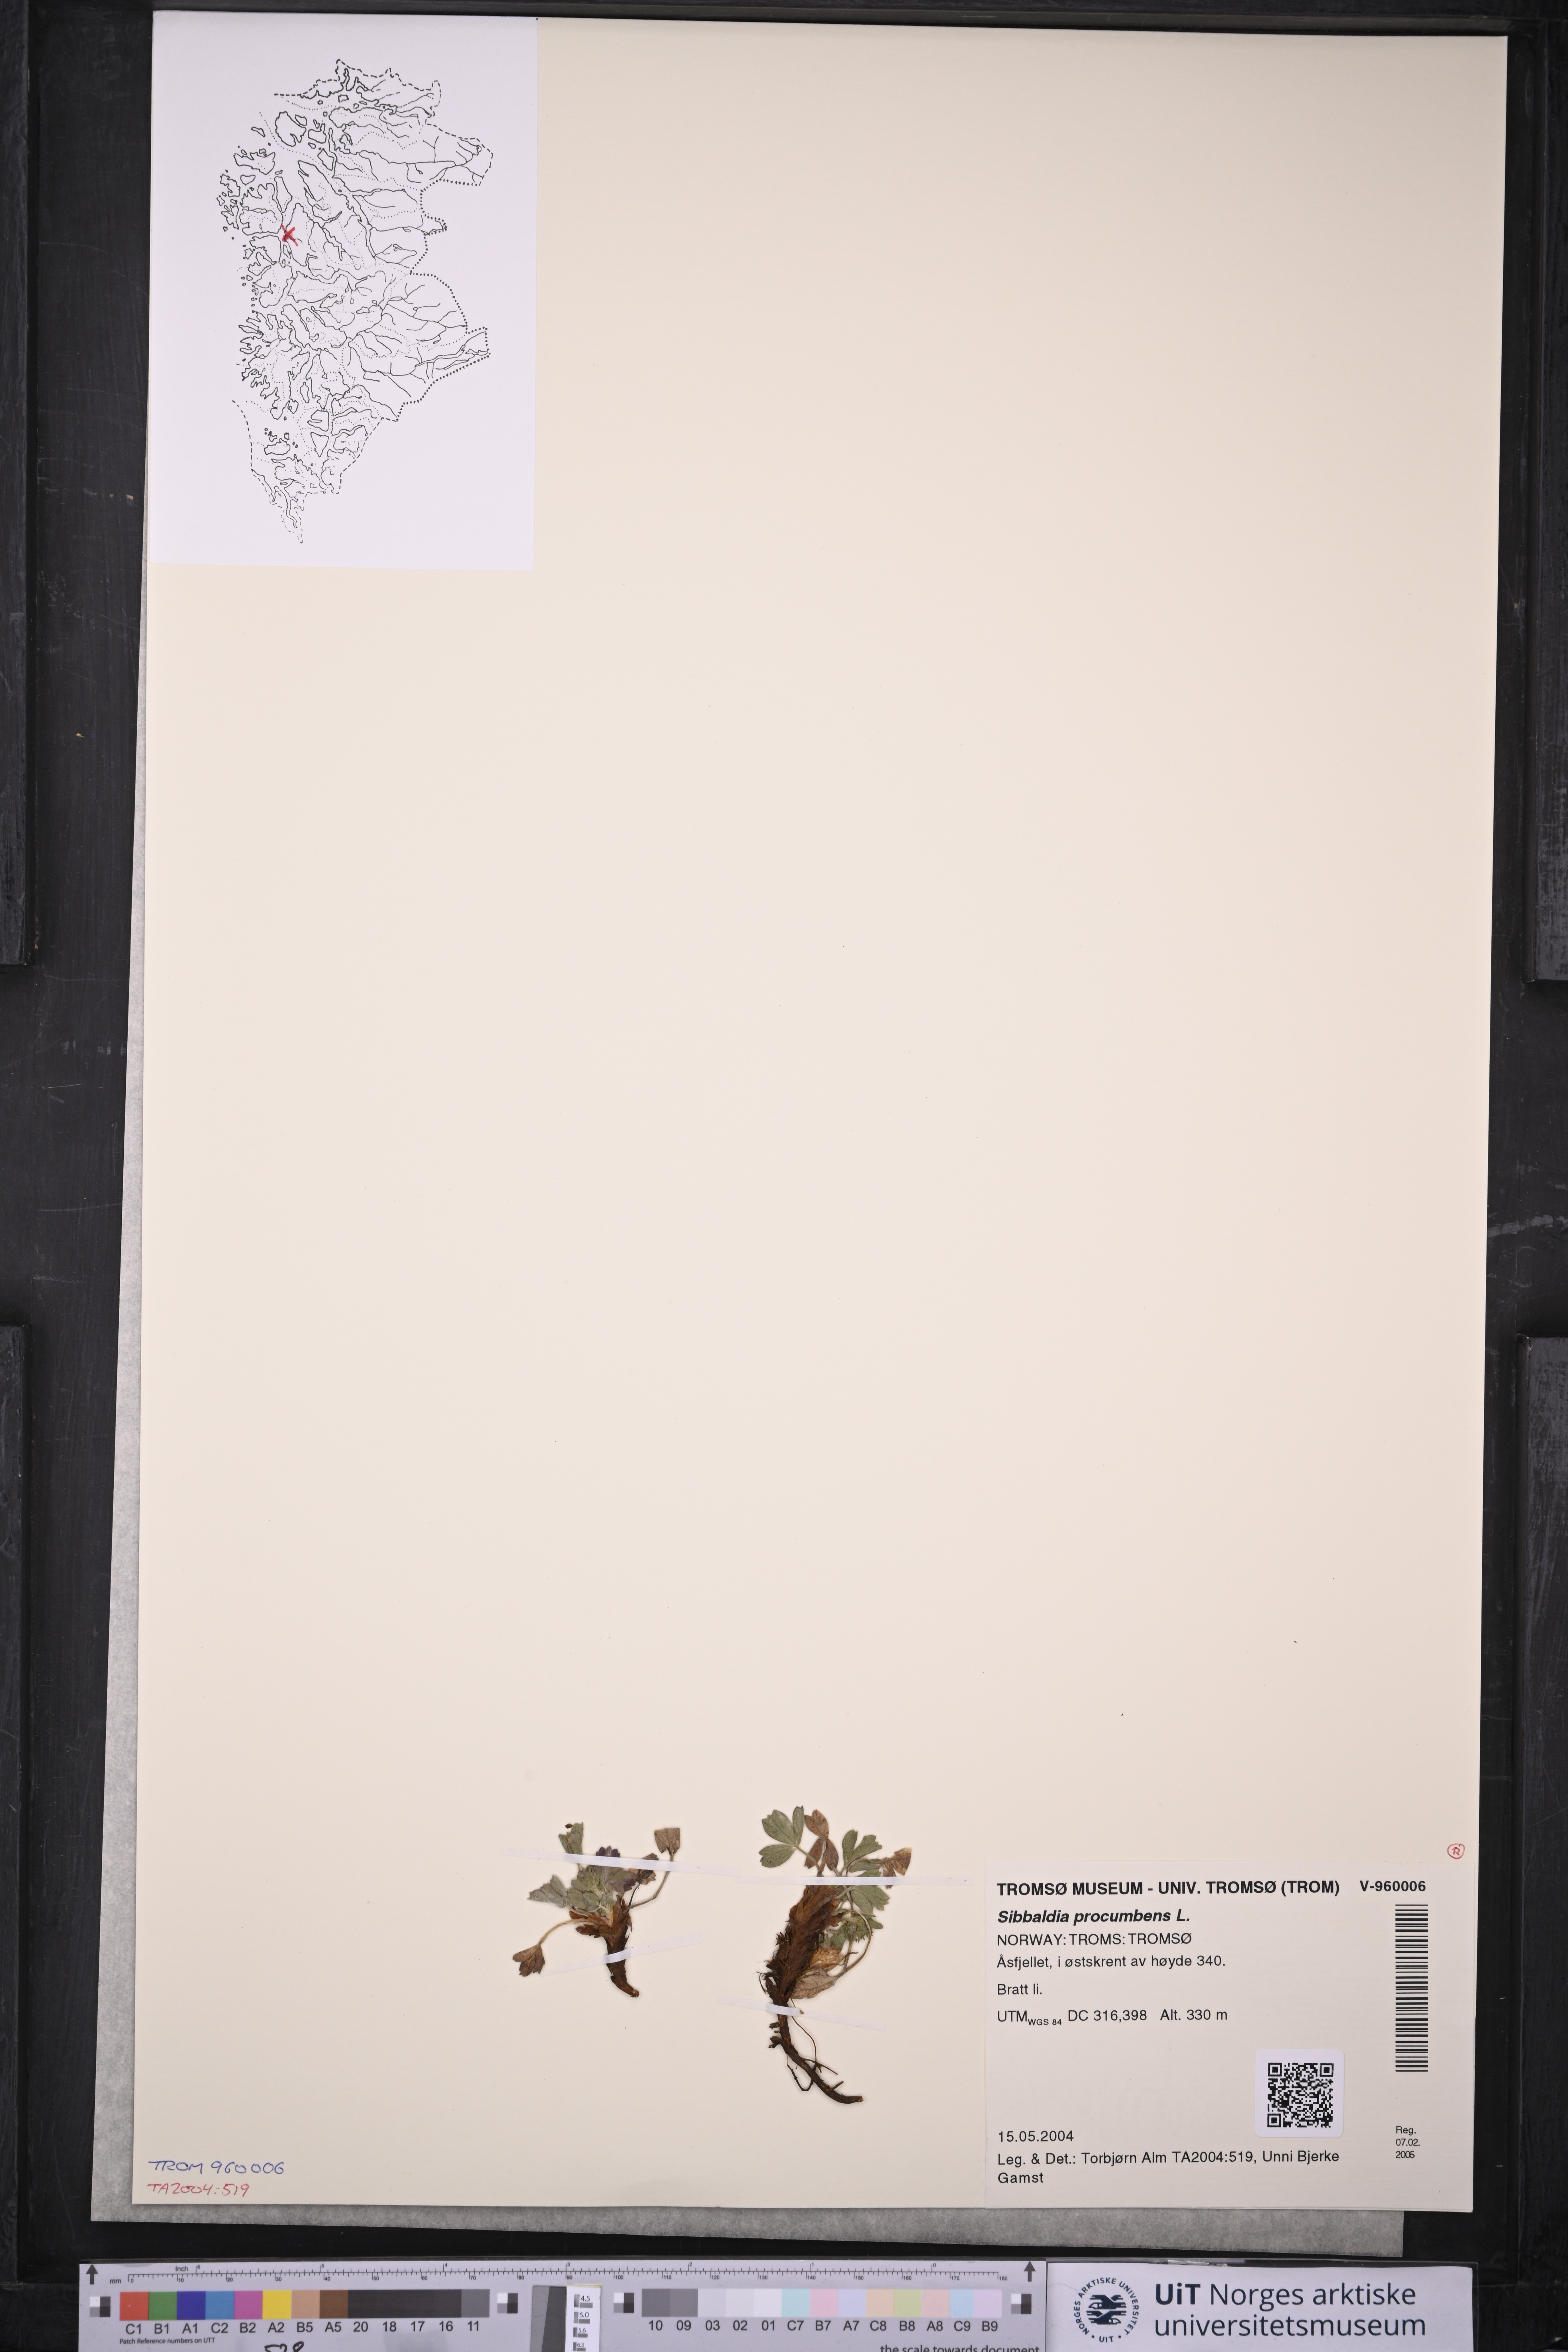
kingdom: Plantae
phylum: Tracheophyta
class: Magnoliopsida
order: Rosales
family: Rosaceae
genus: Sibbaldia
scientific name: Sibbaldia procumbens
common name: Creeping sibbaldia
